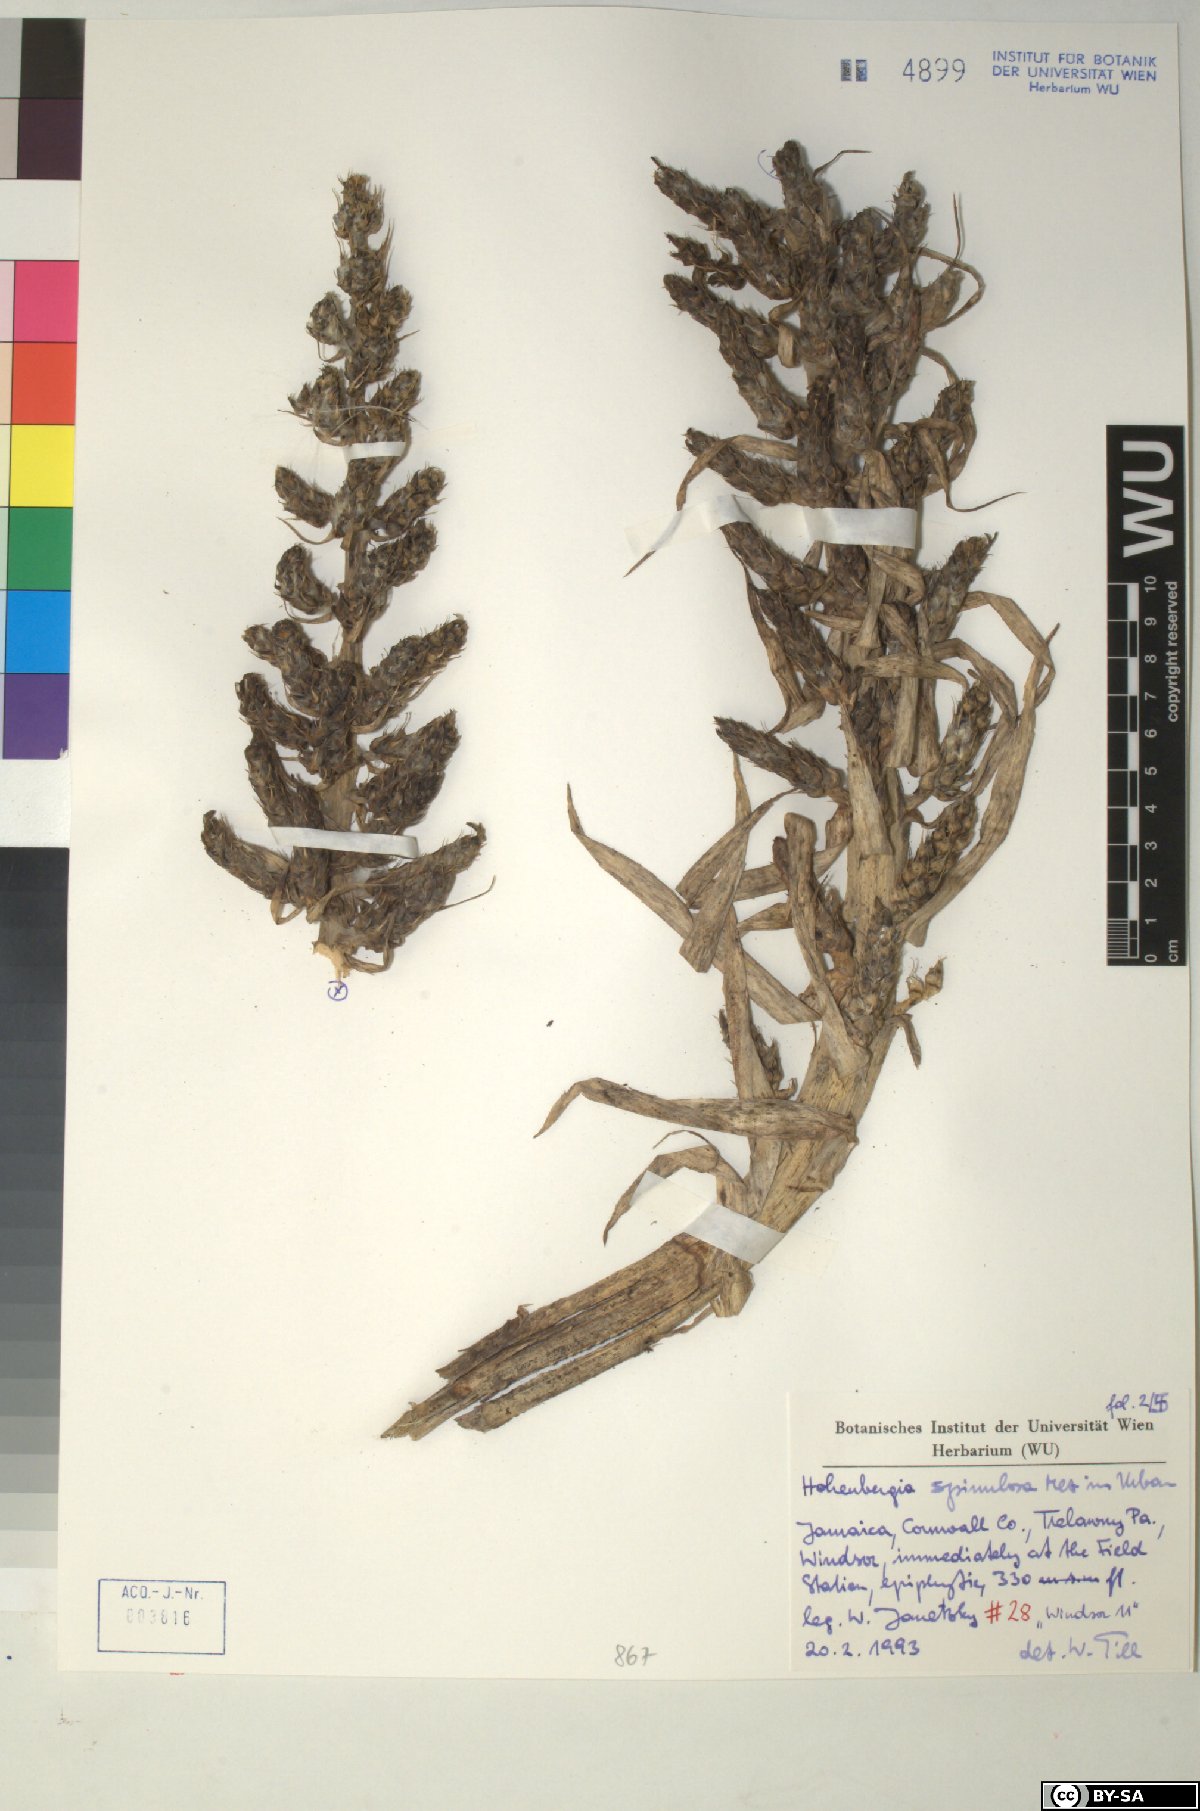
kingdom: Plantae
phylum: Tracheophyta
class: Liliopsida
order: Poales
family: Bromeliaceae
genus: Wittmackia
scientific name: Wittmackia spinulosa
